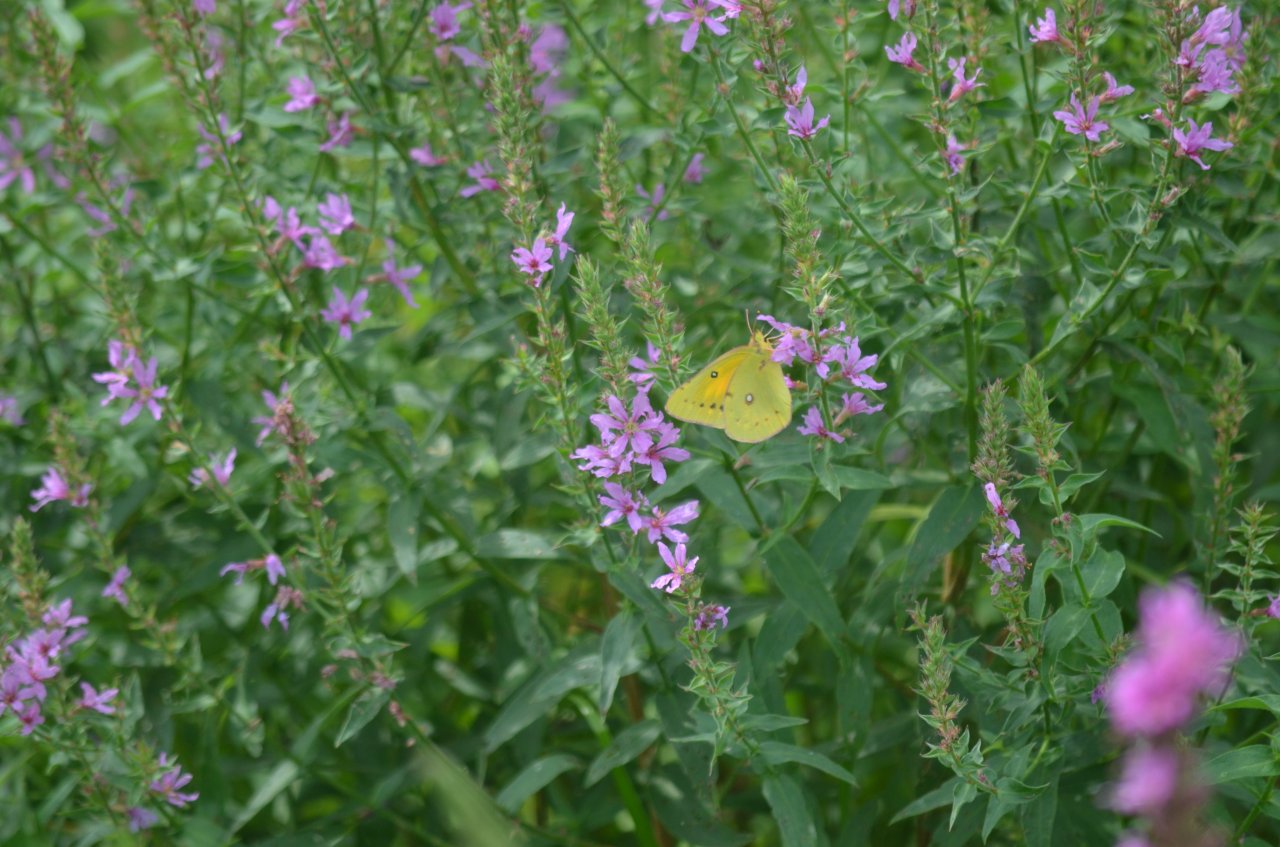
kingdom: Animalia
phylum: Arthropoda
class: Insecta
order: Lepidoptera
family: Pieridae
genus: Colias
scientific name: Colias eurytheme
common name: Orange Sulphur
